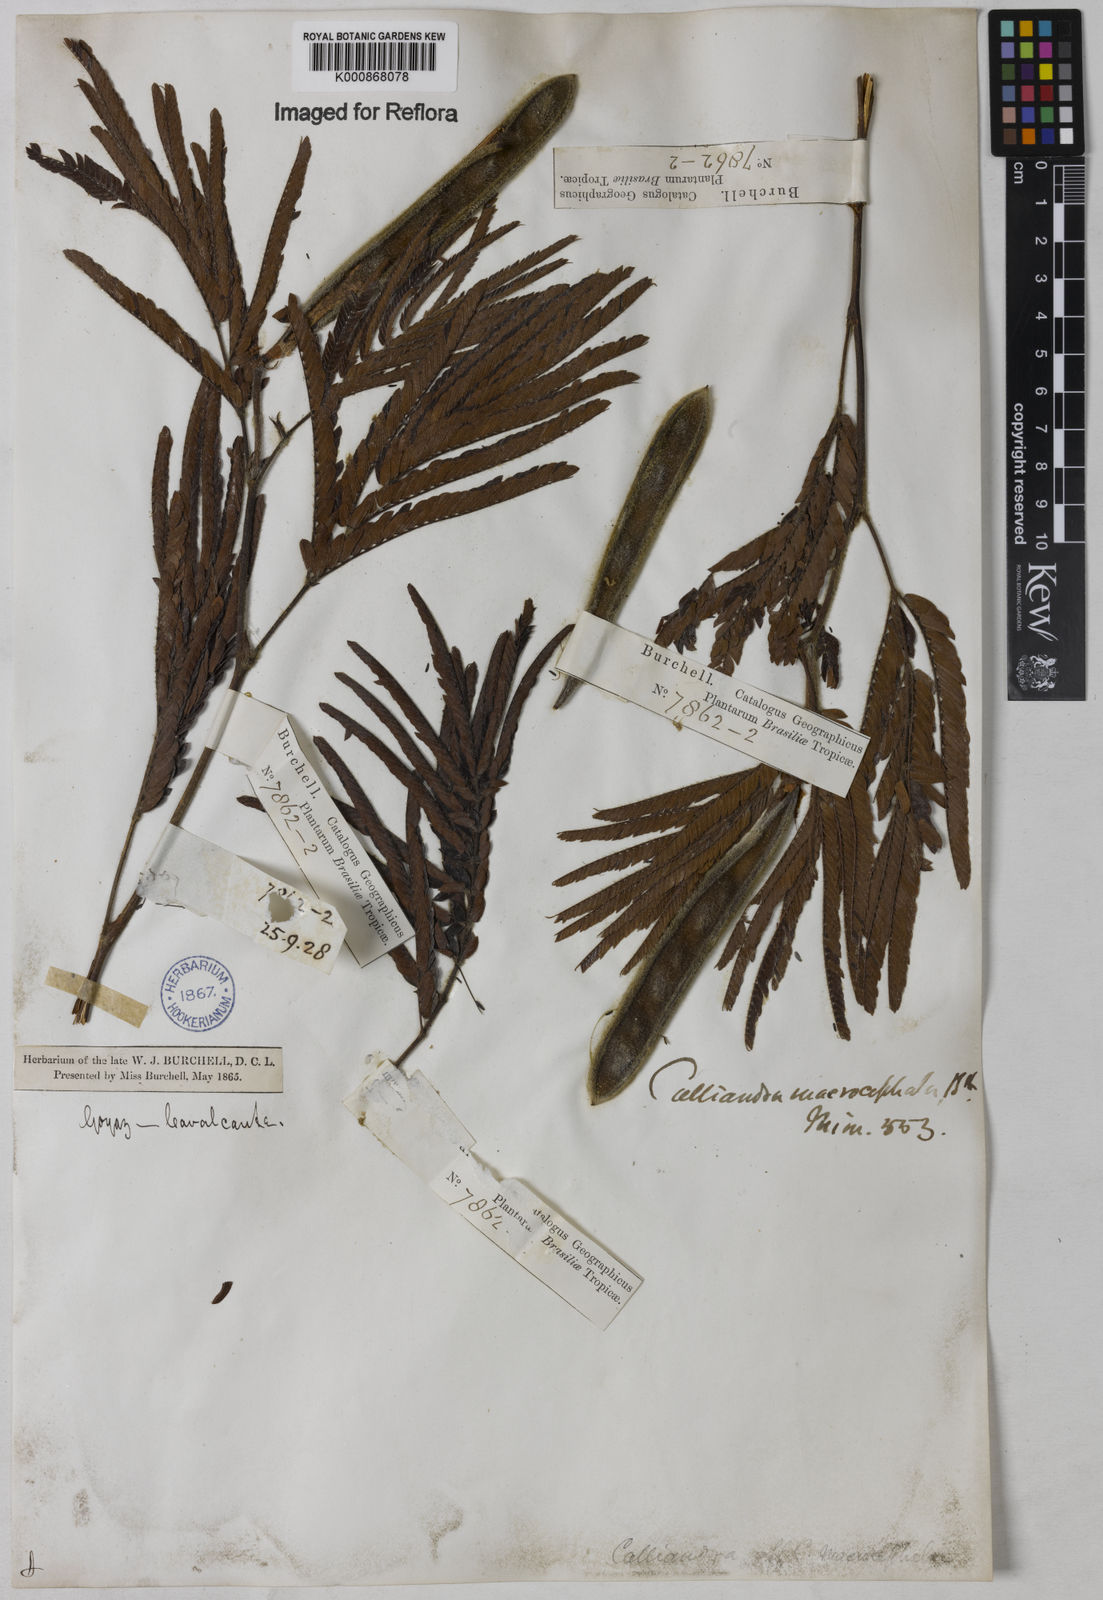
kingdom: Plantae
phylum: Tracheophyta
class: Magnoliopsida
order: Fabales
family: Fabaceae
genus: Calliandra
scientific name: Calliandra dysantha
